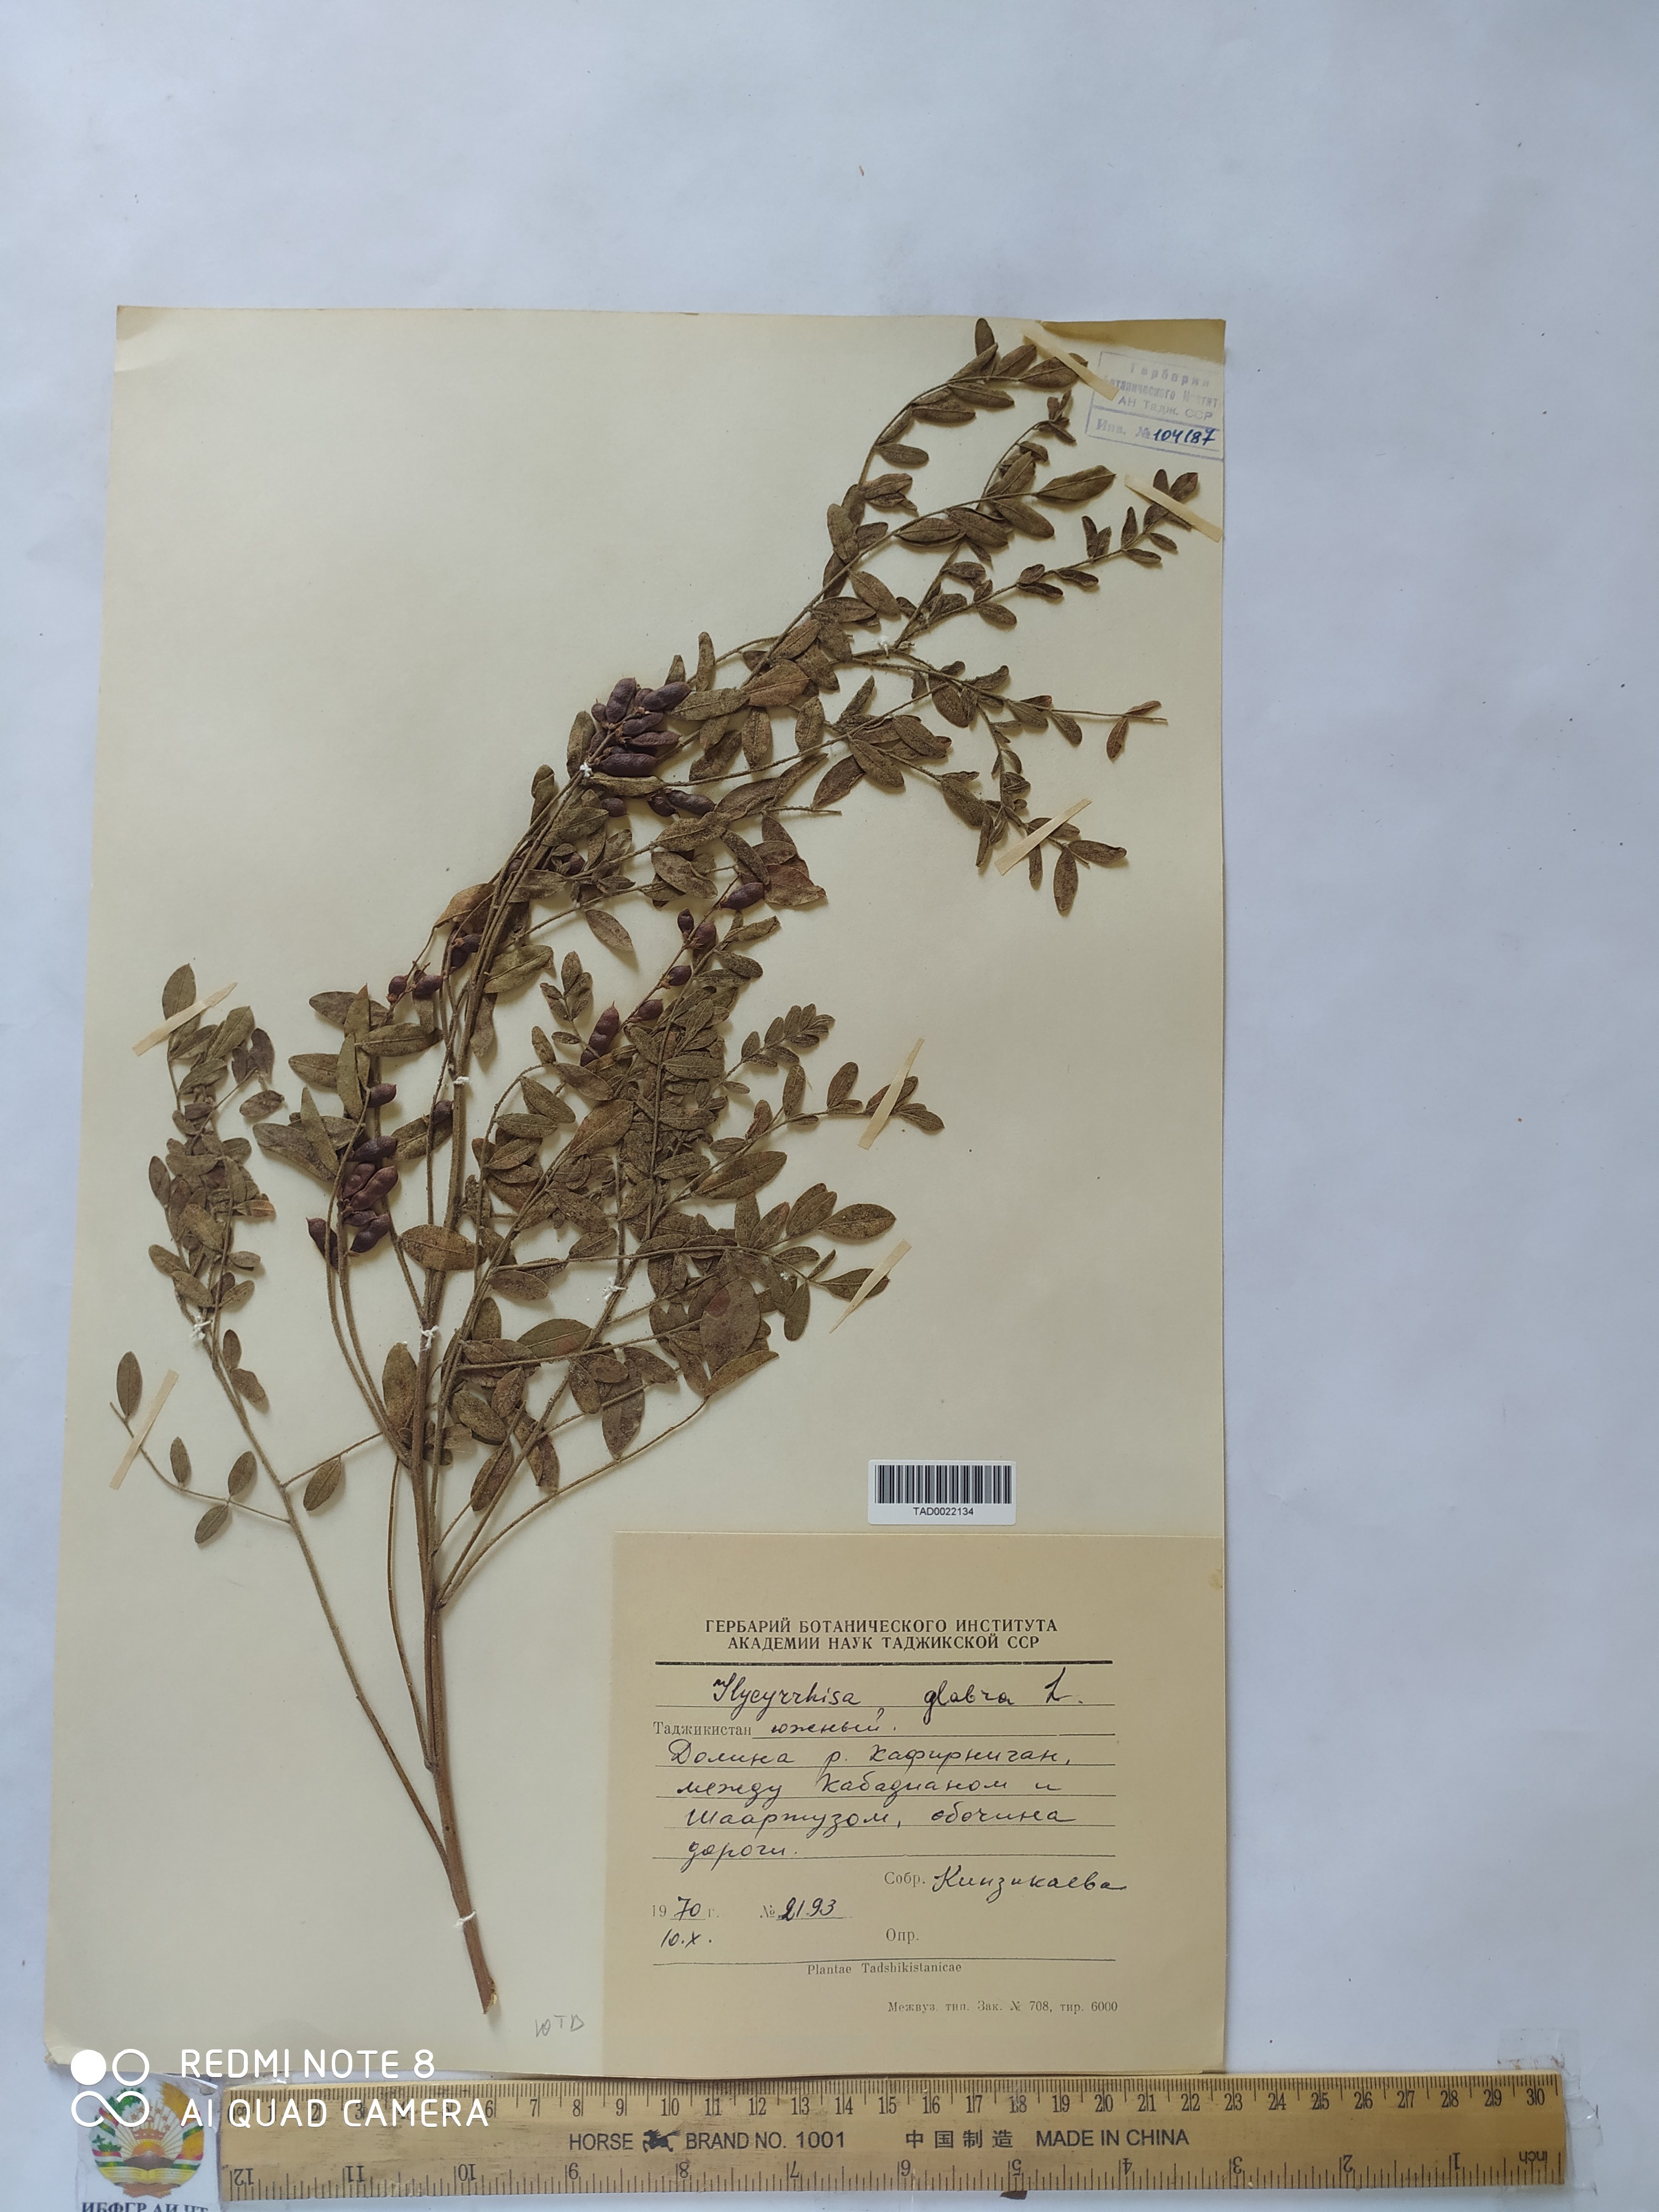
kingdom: Plantae
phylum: Tracheophyta
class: Magnoliopsida
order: Fabales
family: Fabaceae
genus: Glycyrrhiza
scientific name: Glycyrrhiza glabra
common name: Liquorice
